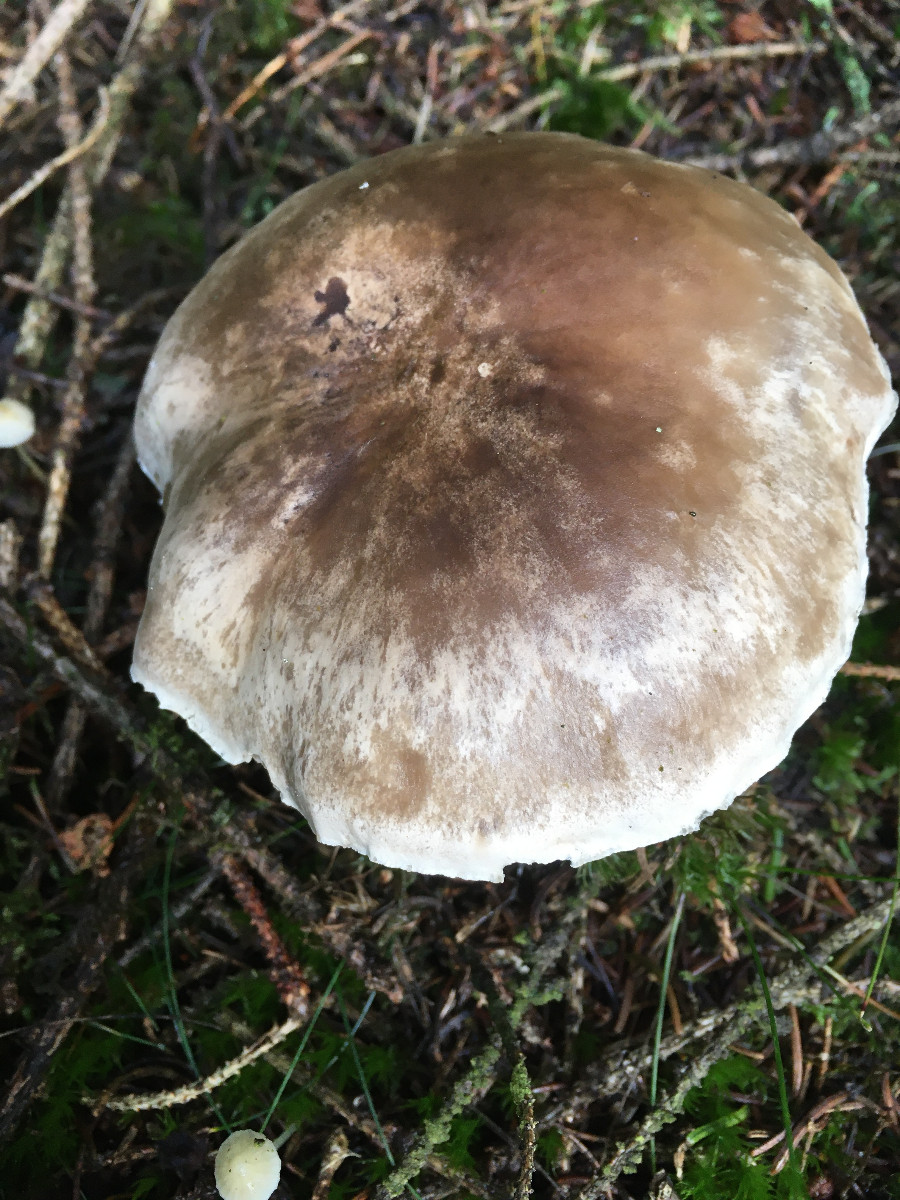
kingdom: Fungi
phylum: Basidiomycota
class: Agaricomycetes
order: Agaricales
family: Tricholomataceae
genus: Clitocybe
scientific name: Clitocybe
